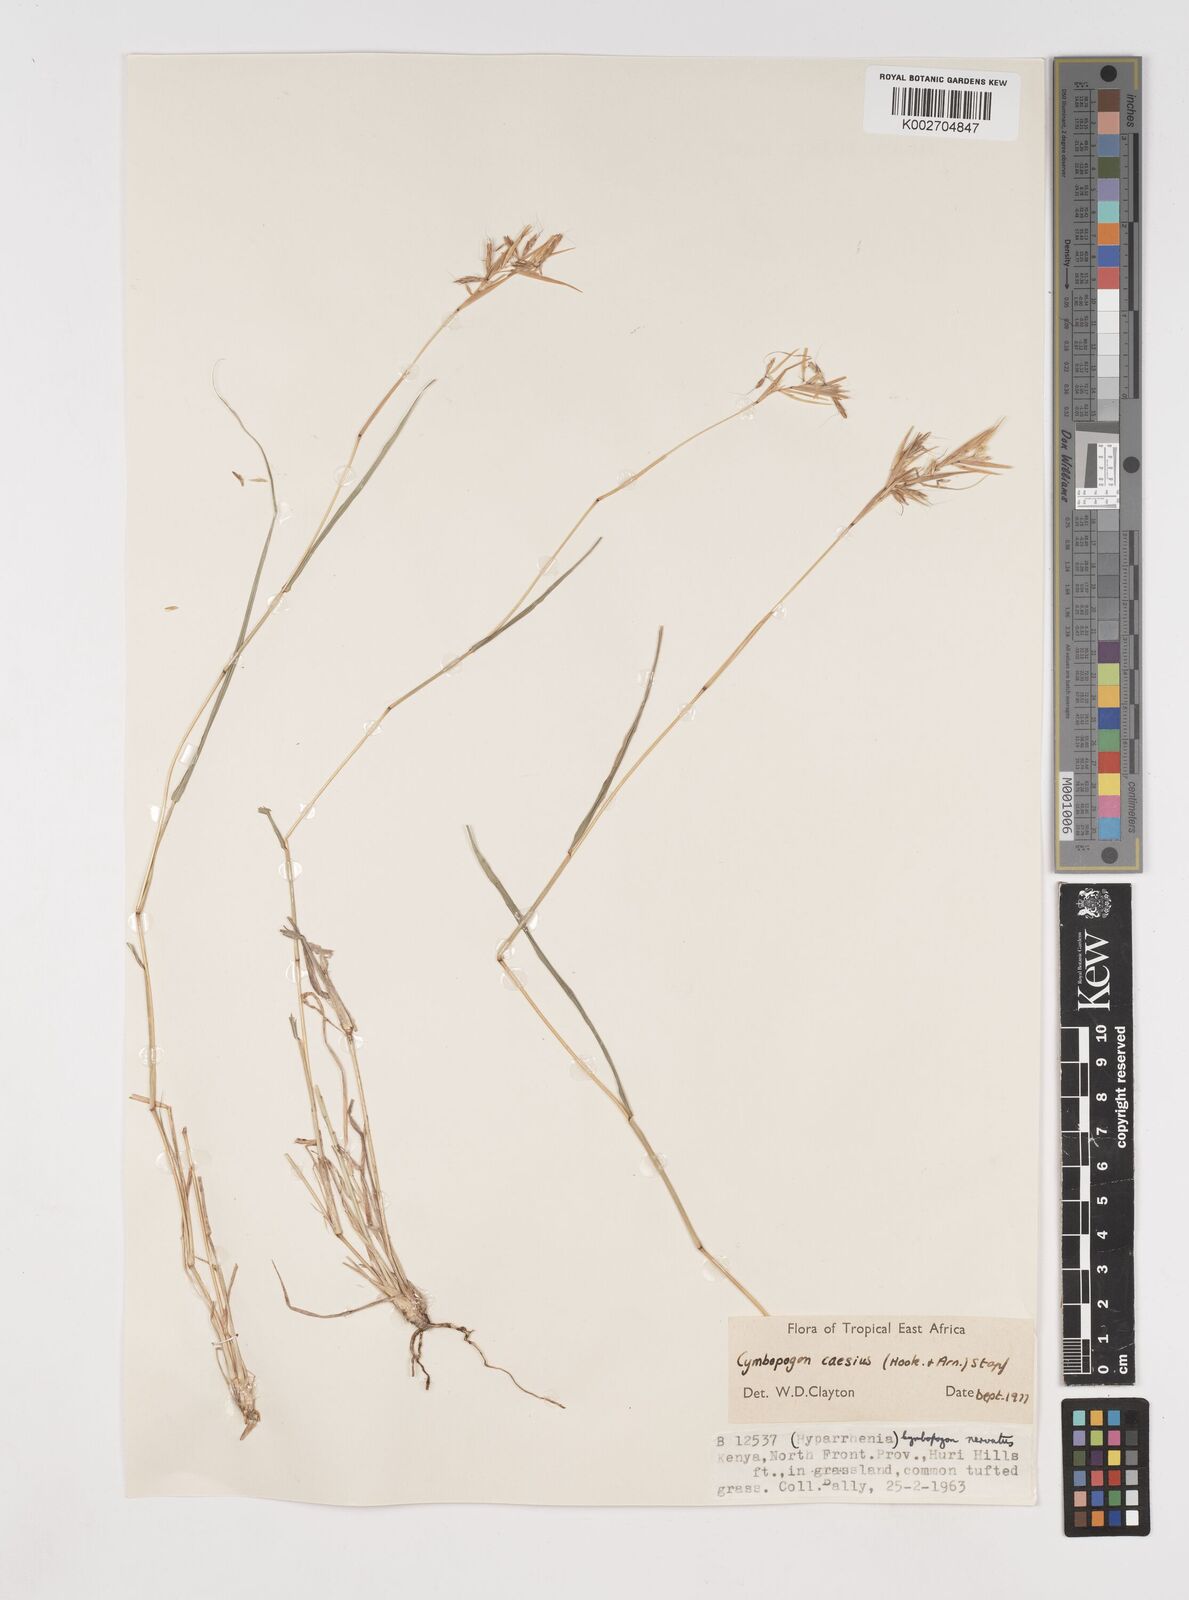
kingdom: Plantae
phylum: Tracheophyta
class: Liliopsida
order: Poales
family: Poaceae
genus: Cymbopogon
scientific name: Cymbopogon caesius
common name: Kachi grass
